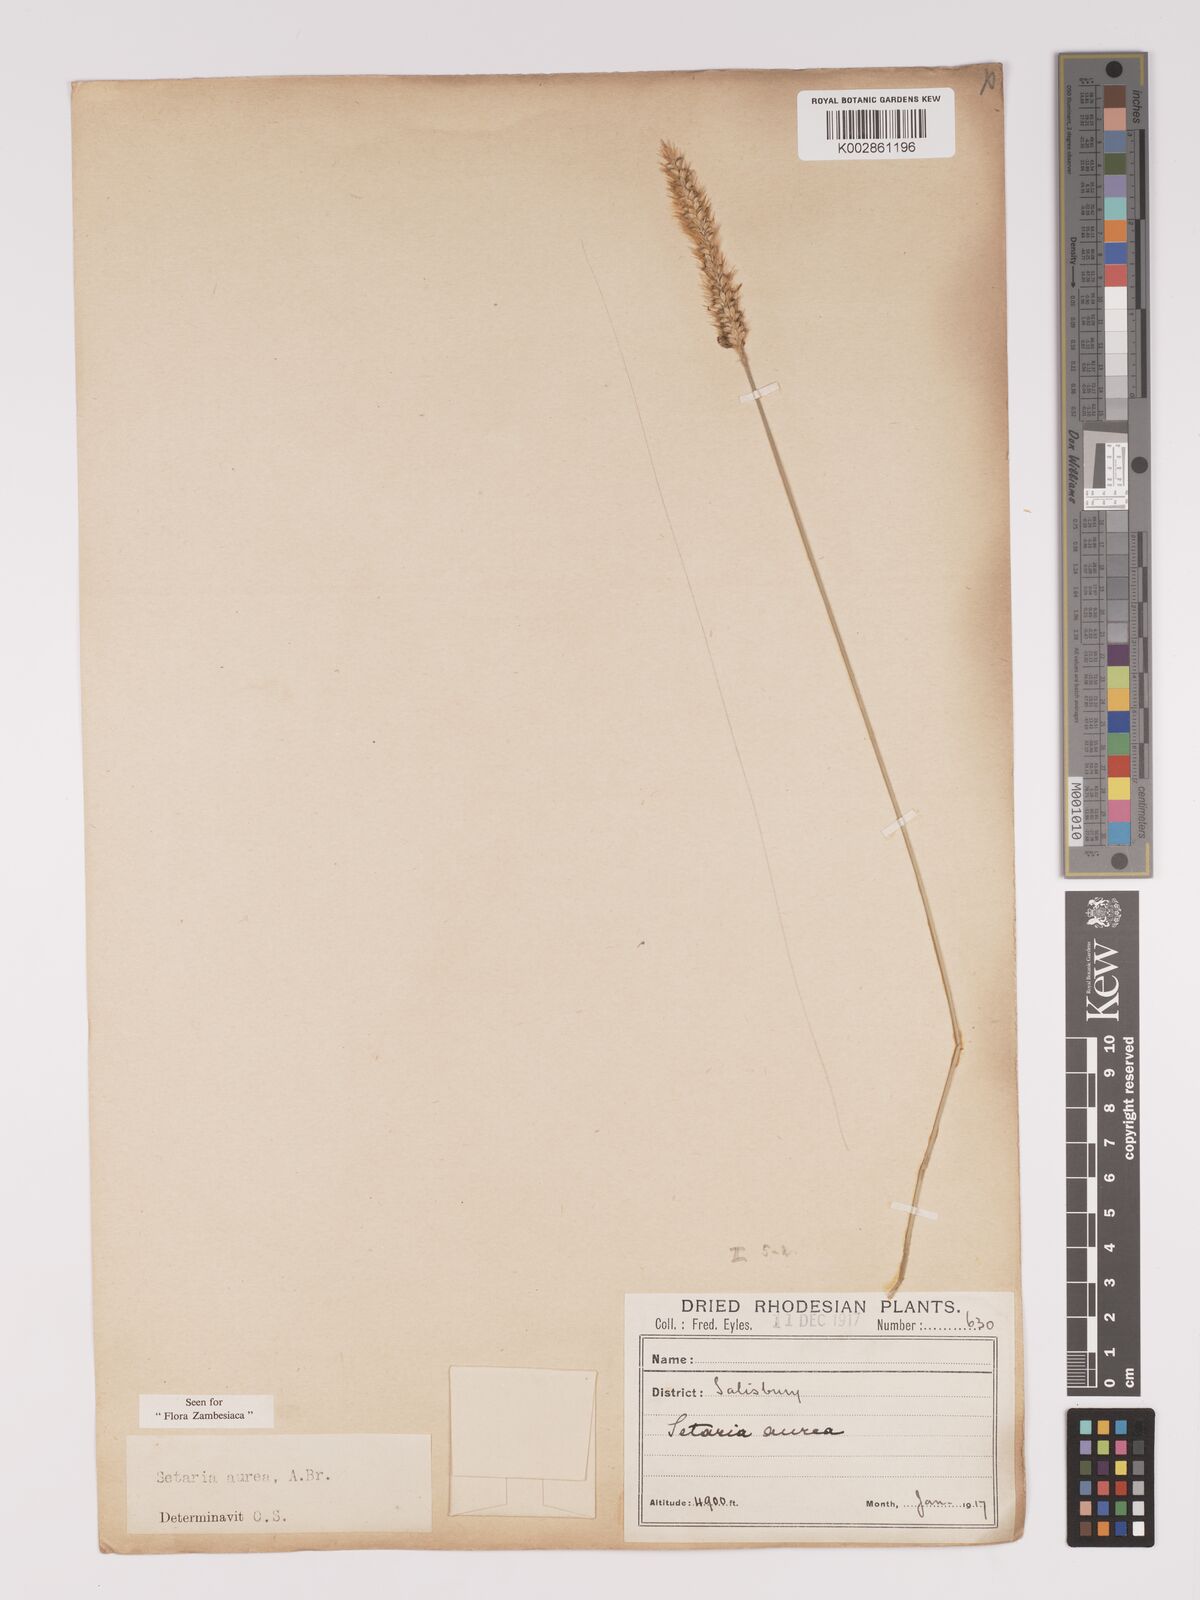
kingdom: Plantae
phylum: Tracheophyta
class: Liliopsida
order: Poales
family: Poaceae
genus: Setaria
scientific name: Setaria sphacelata
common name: African bristlegrass
